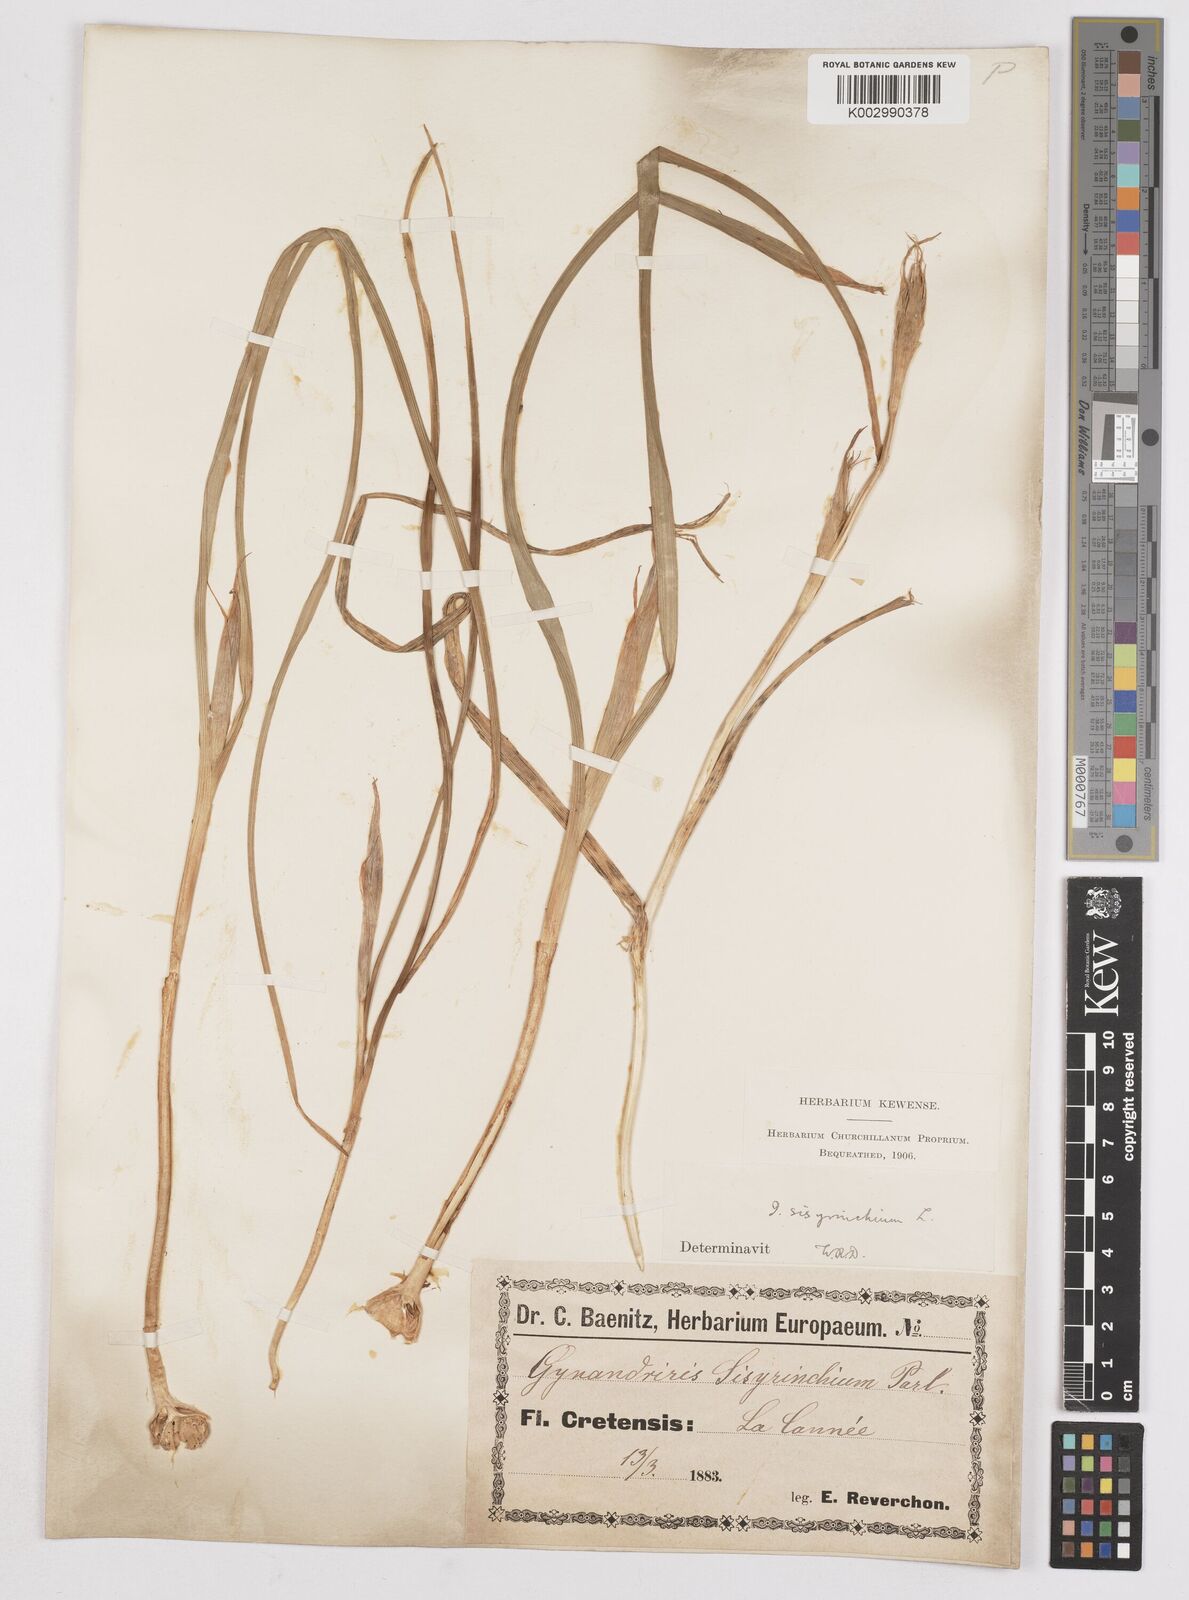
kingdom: Plantae
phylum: Tracheophyta
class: Liliopsida
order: Asparagales
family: Iridaceae
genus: Moraea
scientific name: Moraea sisyrinchium
